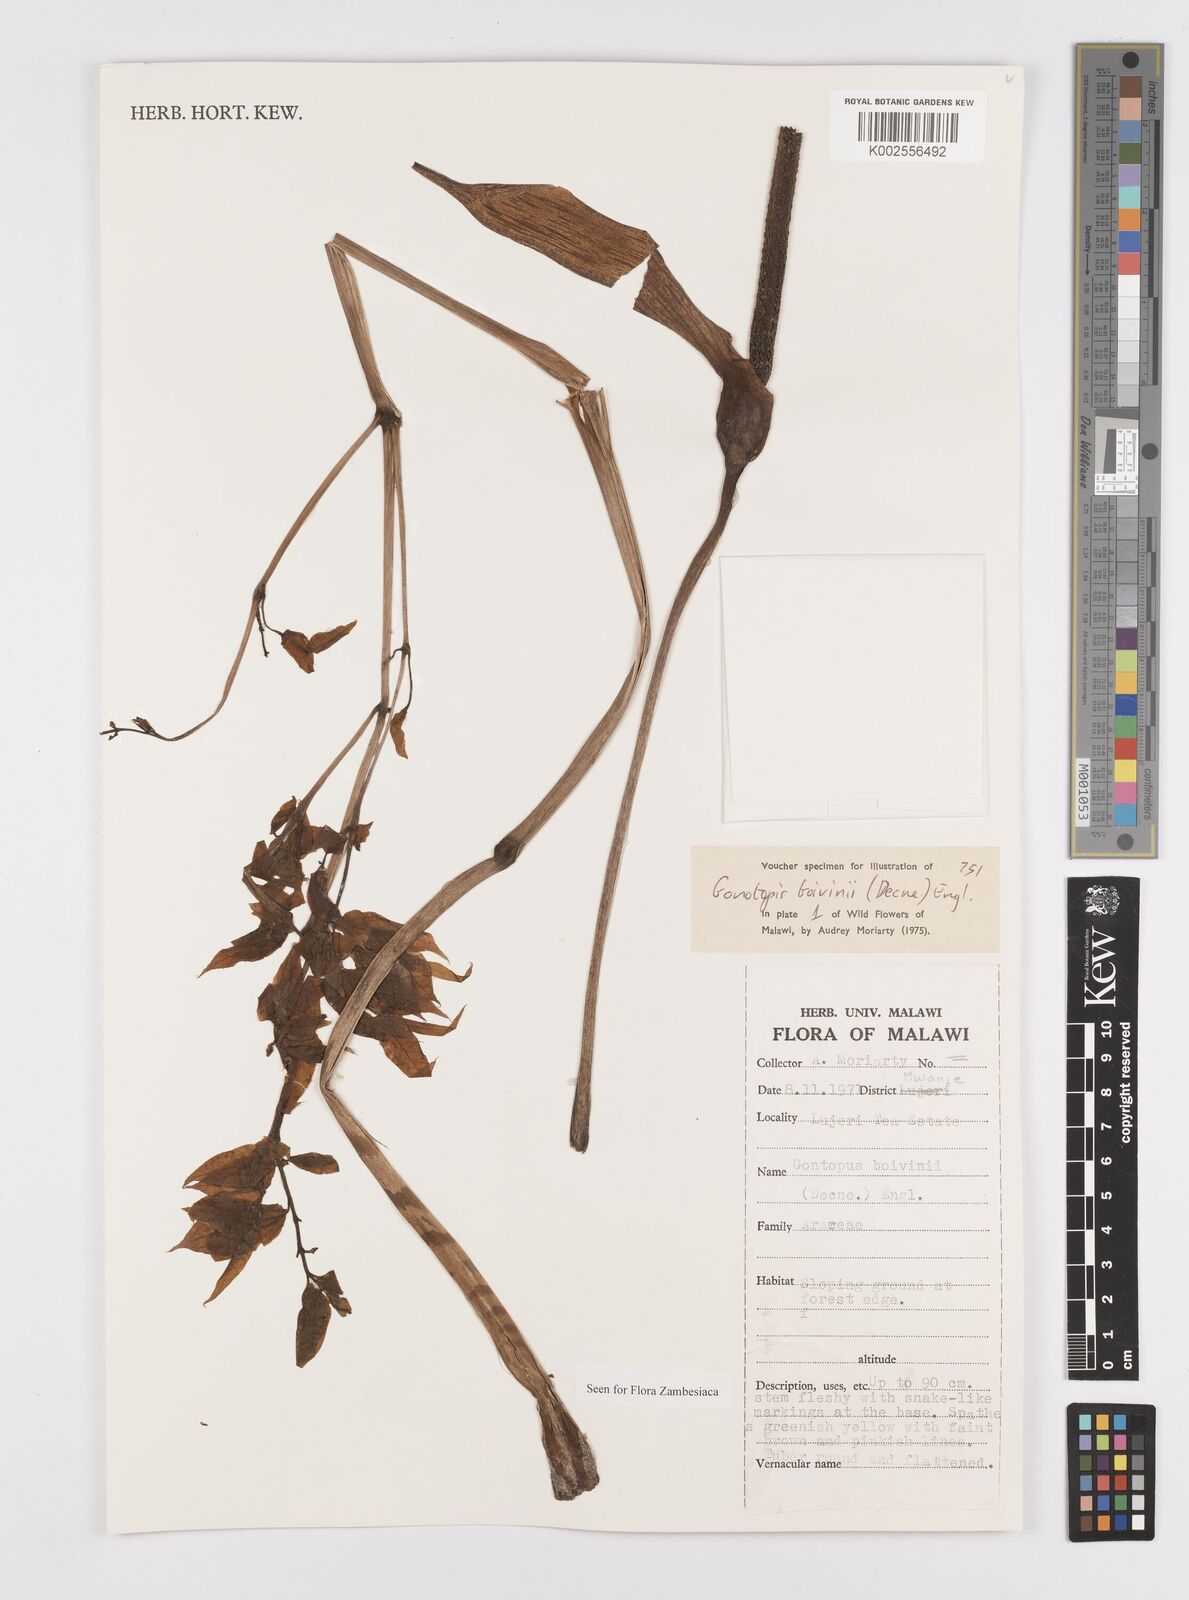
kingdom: Plantae
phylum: Tracheophyta
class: Liliopsida
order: Alismatales
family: Araceae
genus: Gonatopus
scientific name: Gonatopus boivinii
